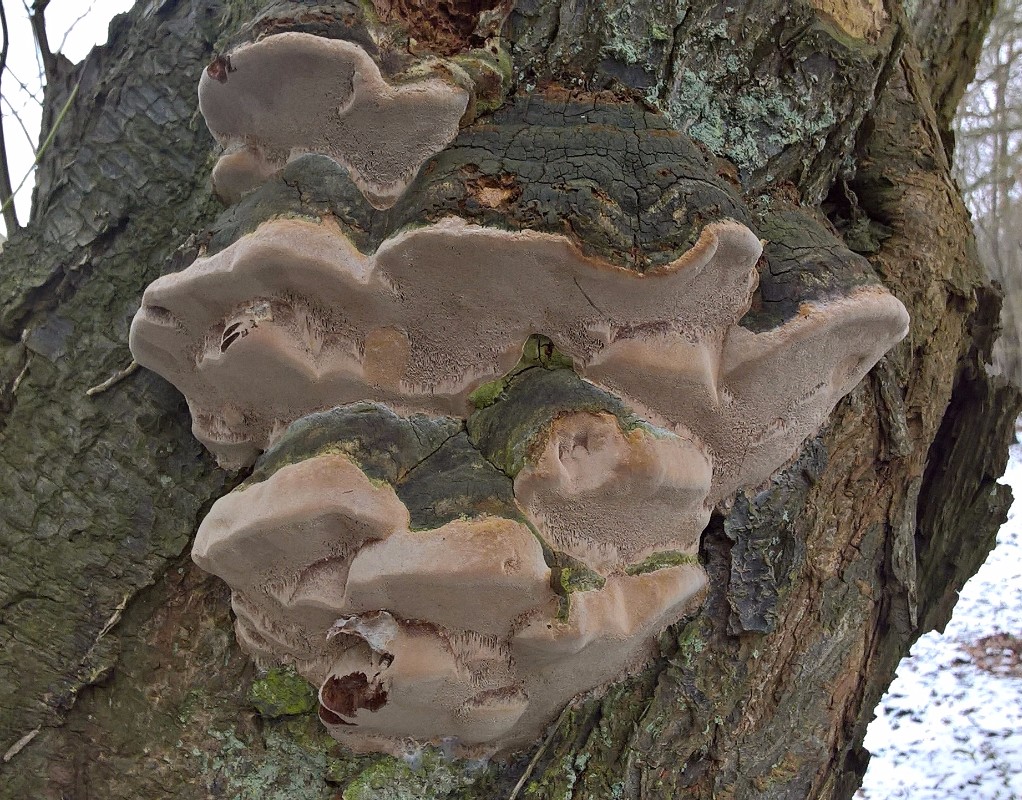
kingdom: Fungi
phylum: Basidiomycota
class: Agaricomycetes
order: Hymenochaetales
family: Hymenochaetaceae
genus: Phellinus
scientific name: Phellinus pomaceus
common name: blomme-ildporesvamp
